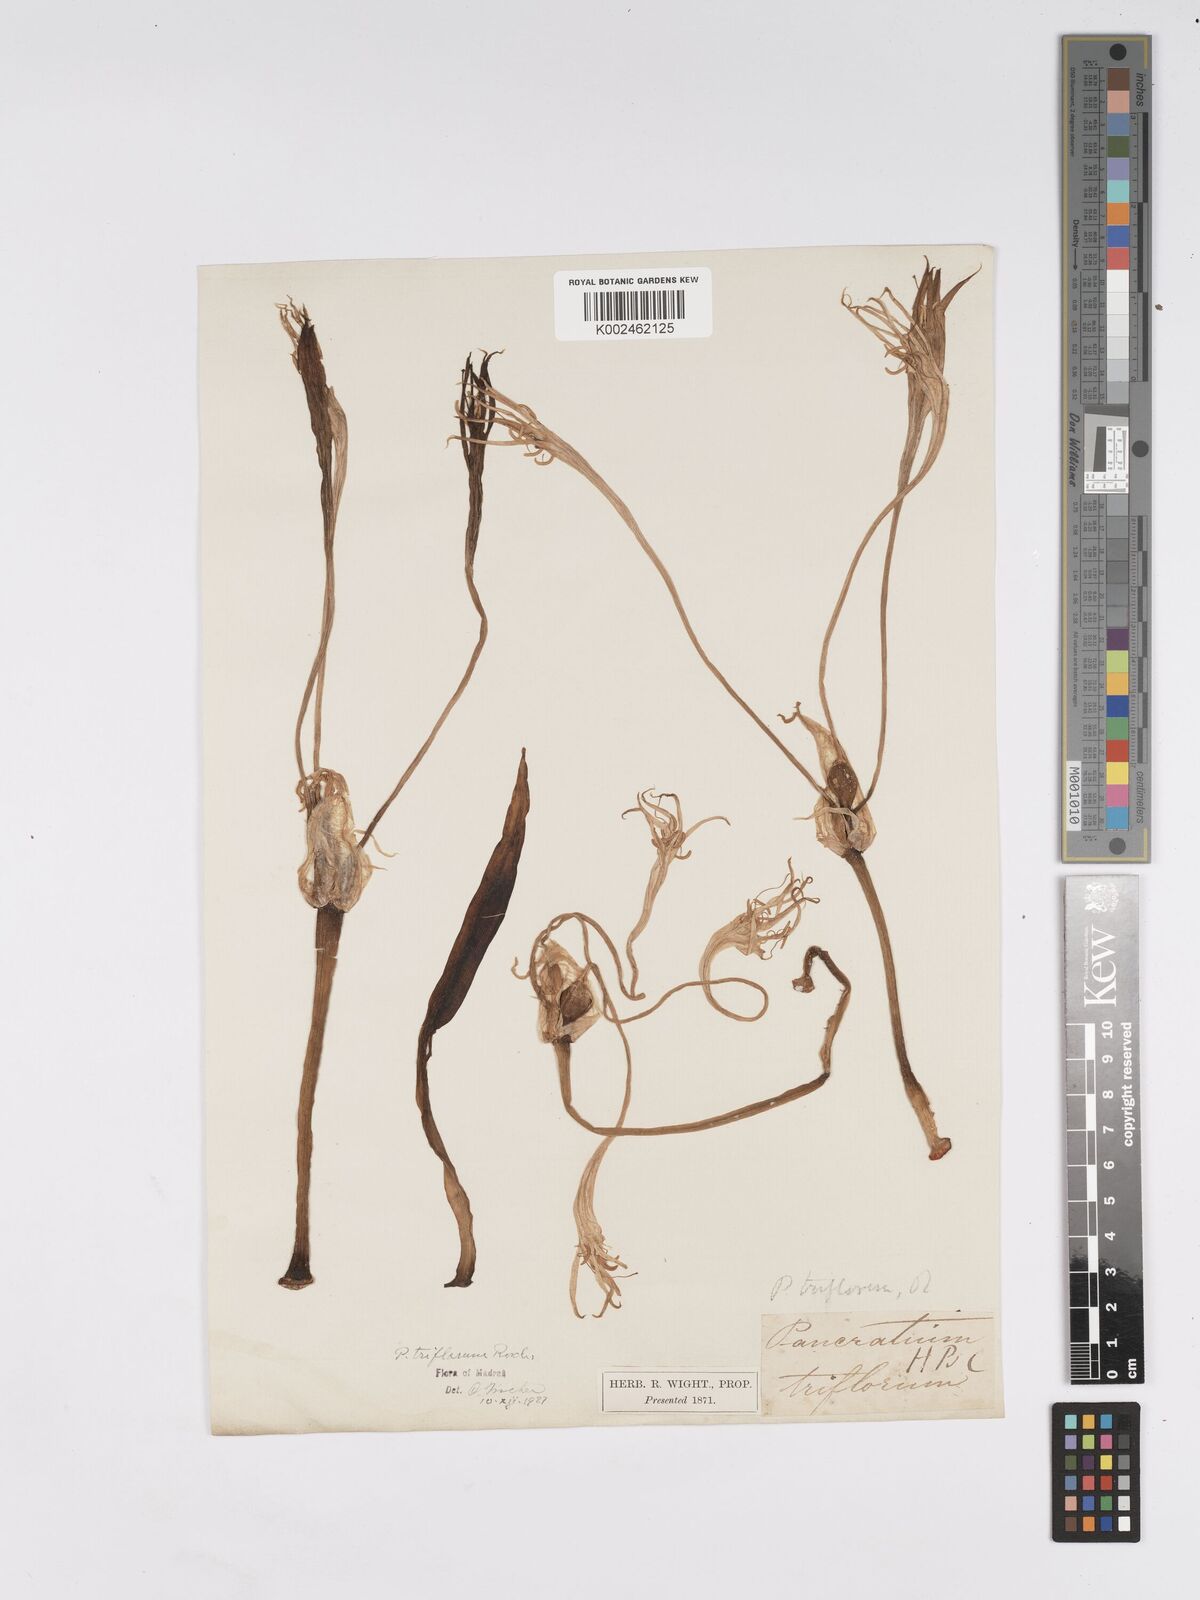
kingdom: Plantae
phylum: Tracheophyta
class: Liliopsida
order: Asparagales
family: Amaryllidaceae
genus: Pancratium
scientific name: Pancratium verecundum
